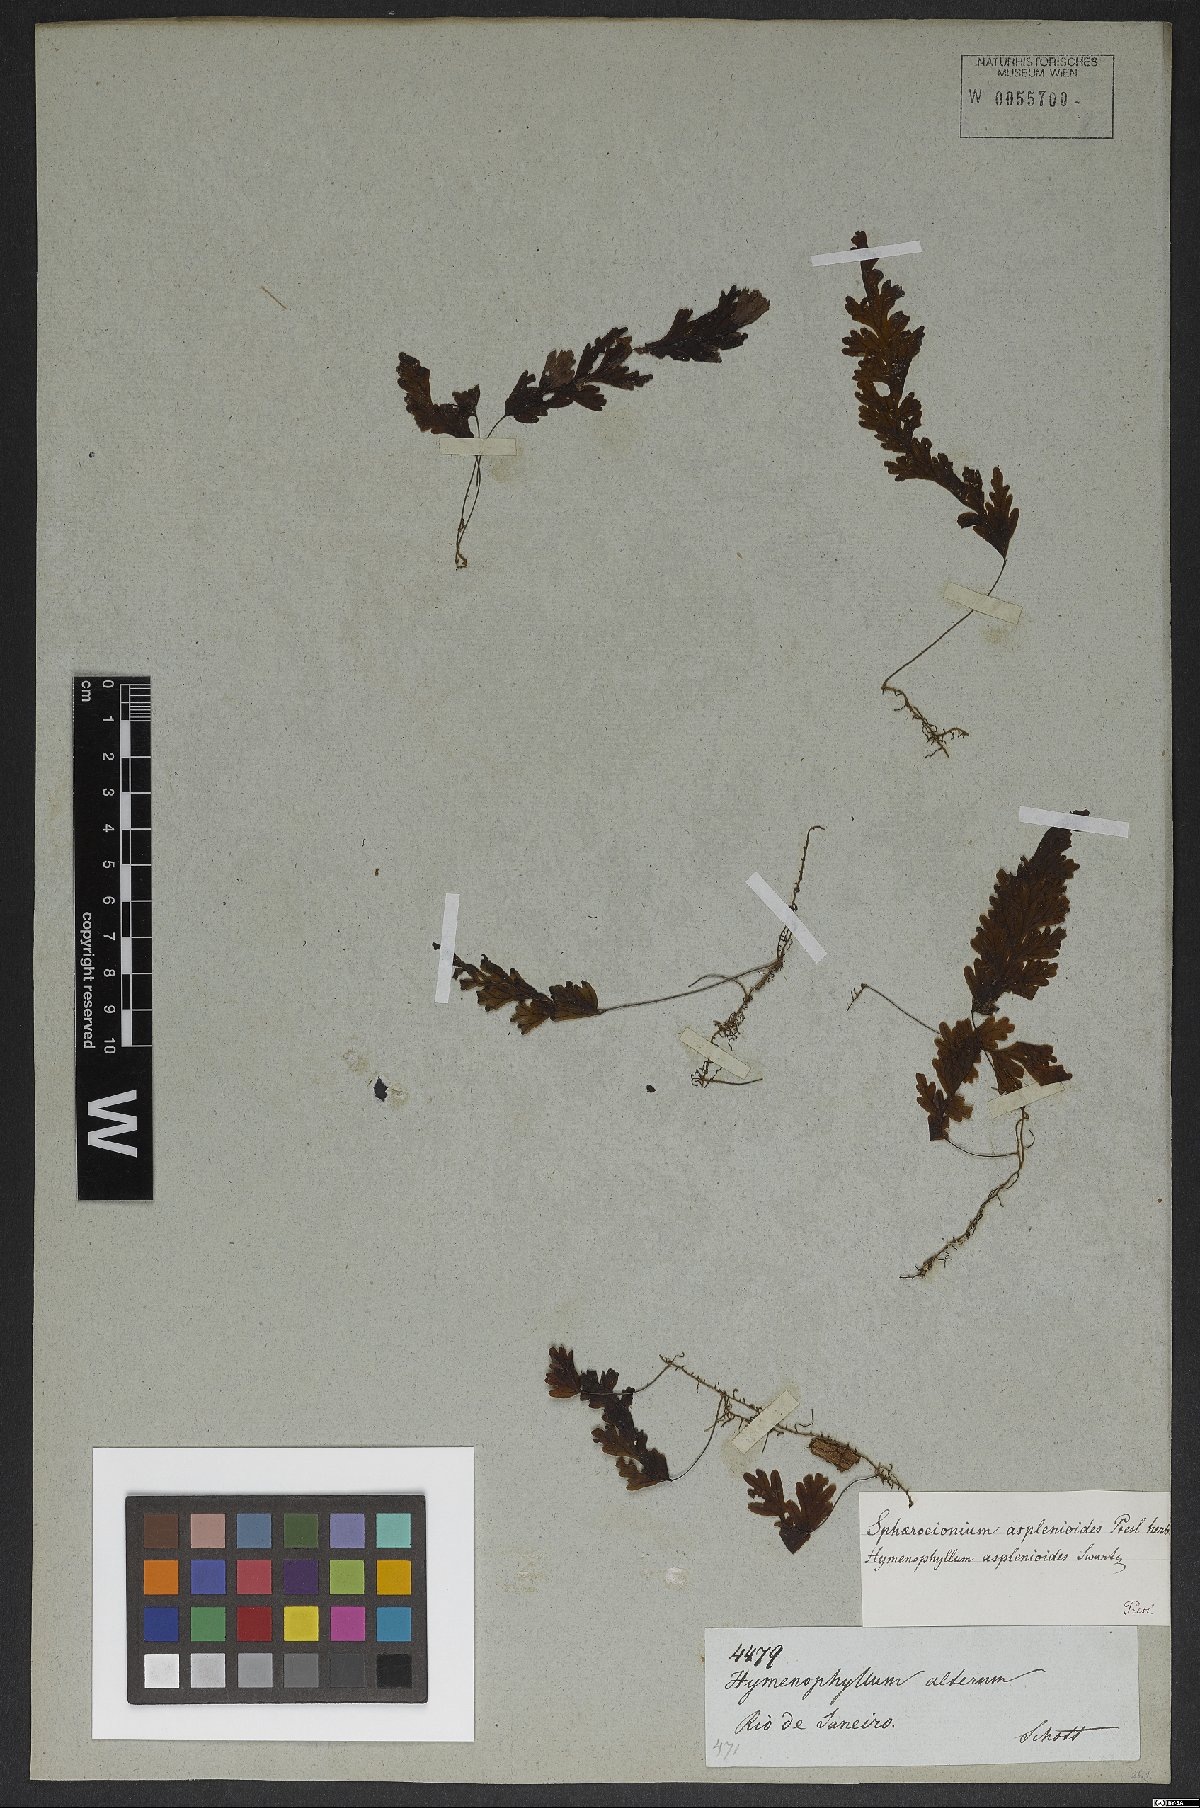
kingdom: Plantae
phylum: Tracheophyta
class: Polypodiopsida
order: Hymenophyllales
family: Hymenophyllaceae
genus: Hymenophyllum
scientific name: Hymenophyllum asplenioides
